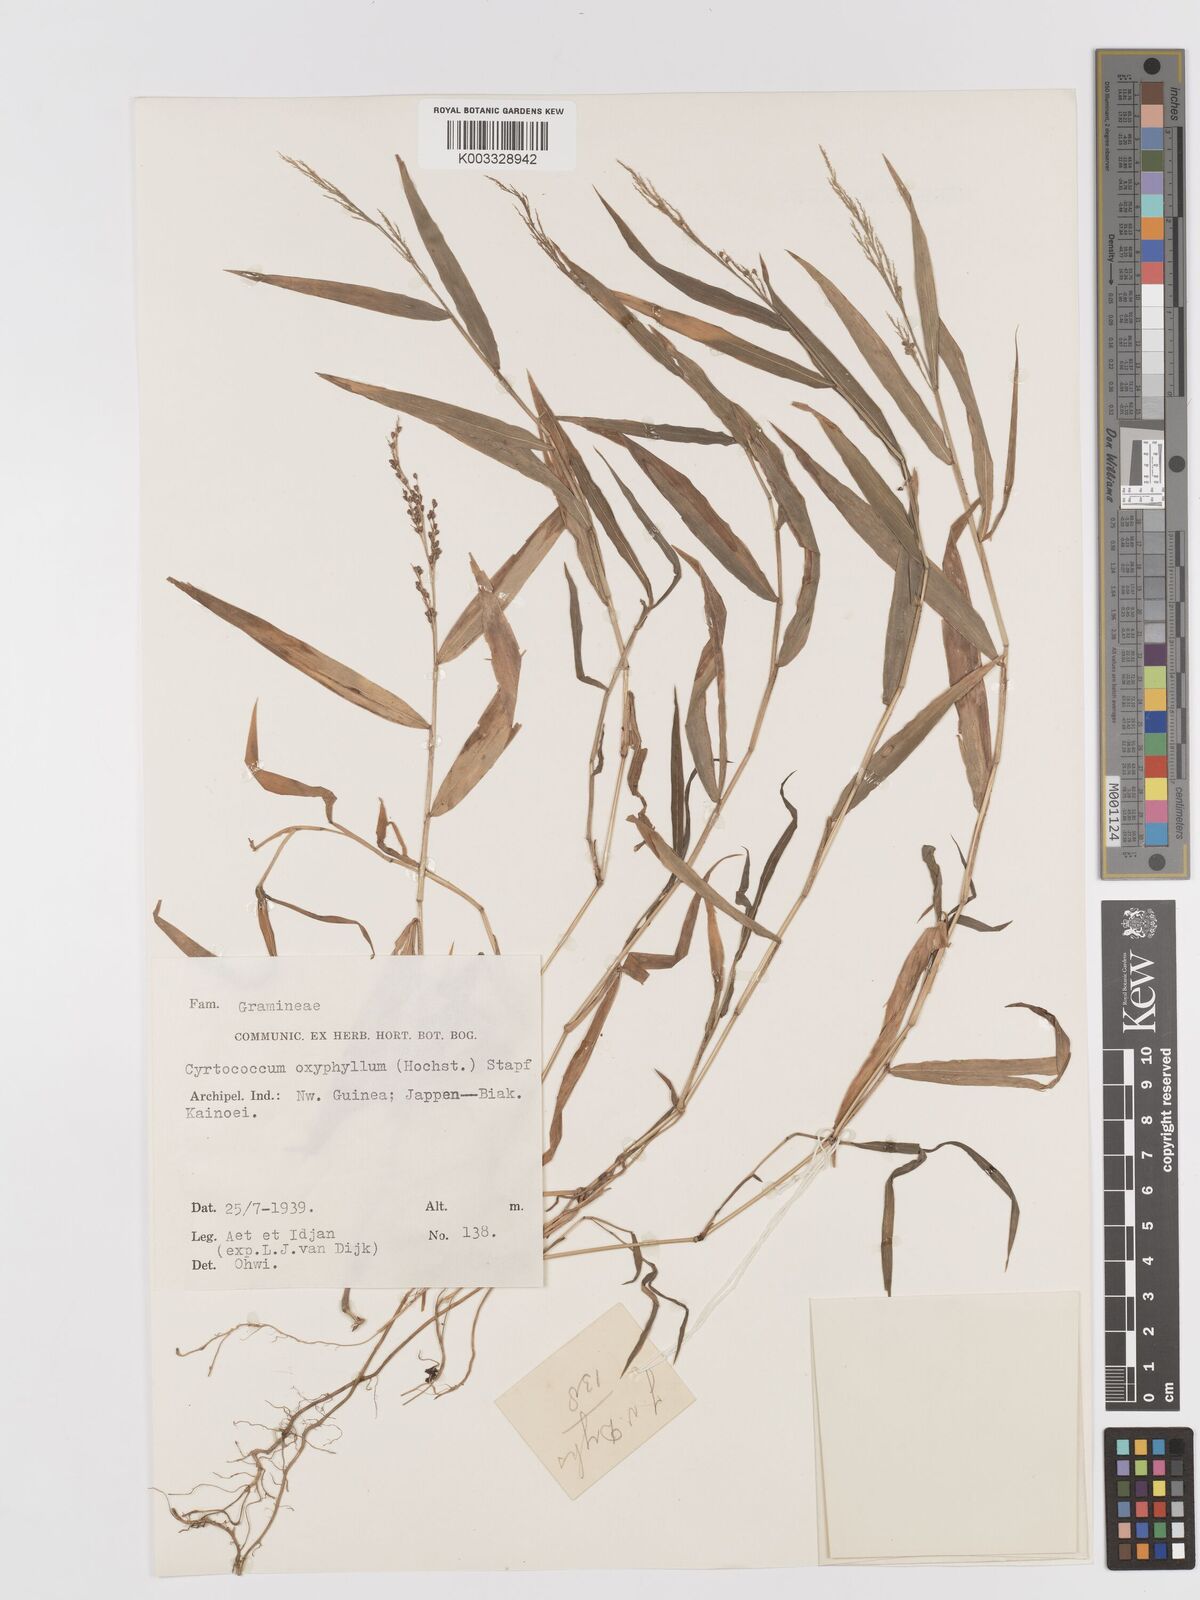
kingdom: Plantae
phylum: Tracheophyta
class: Liliopsida
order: Poales
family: Poaceae
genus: Cyrtococcum
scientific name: Cyrtococcum oxyphyllum
